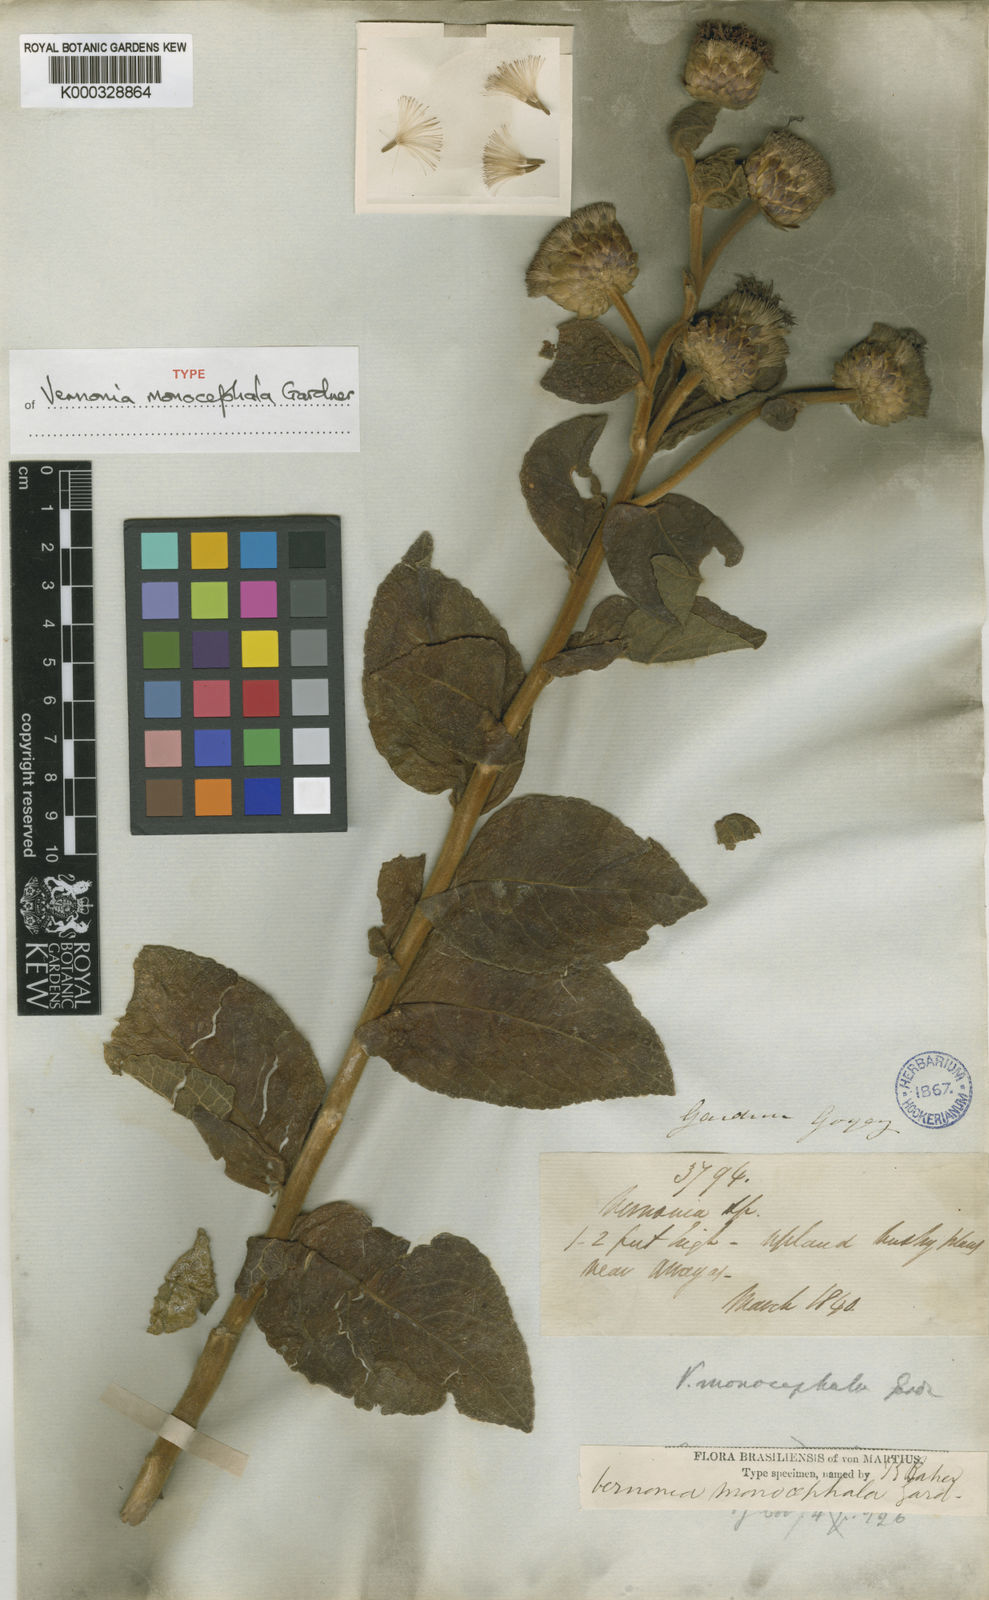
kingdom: Plantae
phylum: Tracheophyta
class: Magnoliopsida
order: Asterales
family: Asteraceae
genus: Lessingianthus
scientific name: Lessingianthus monocephalus
